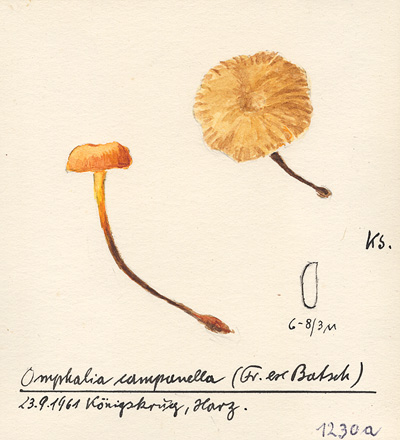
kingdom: Fungi
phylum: Basidiomycota
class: Agaricomycetes
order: Agaricales
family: Mycenaceae
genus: Xeromphalina
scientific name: Xeromphalina campanella
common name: Pinewood gingertail
